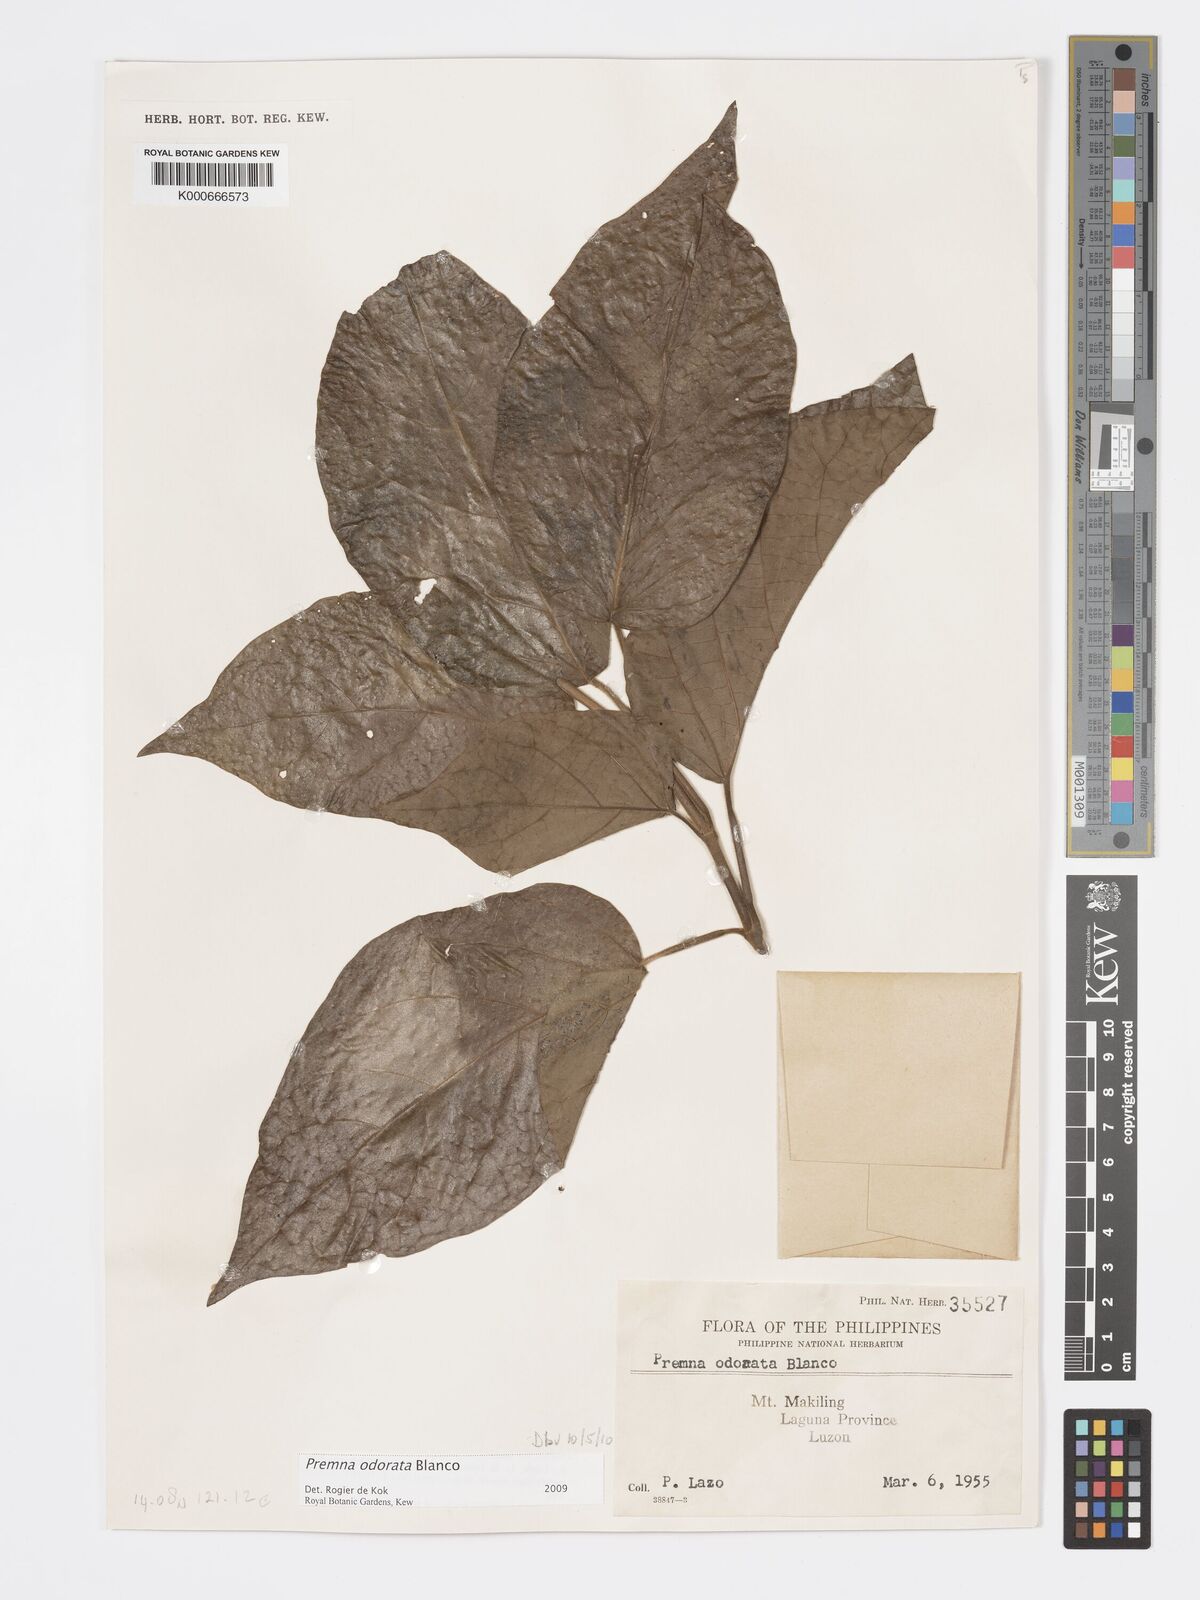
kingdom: Plantae
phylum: Tracheophyta
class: Magnoliopsida
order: Lamiales
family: Lamiaceae
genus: Premna
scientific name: Premna odorata
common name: Fragrant premna
